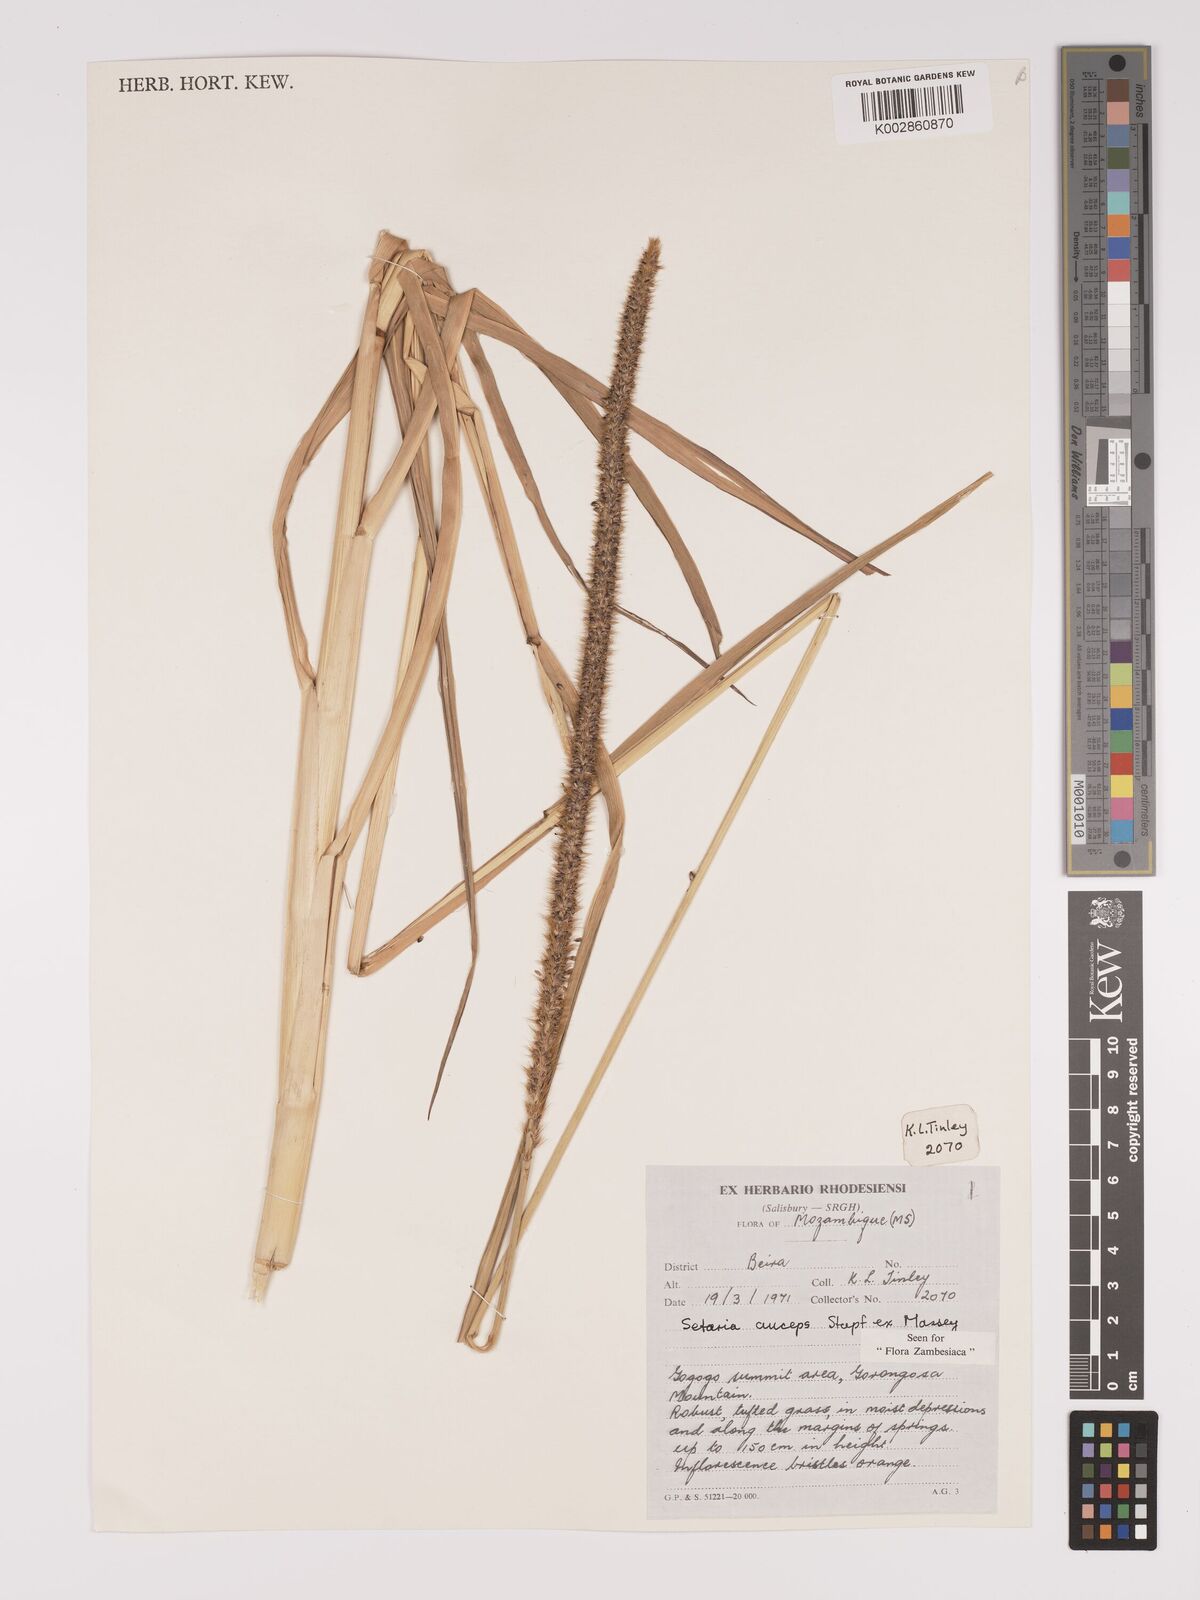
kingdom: Plantae
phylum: Tracheophyta
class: Liliopsida
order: Poales
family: Poaceae
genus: Setaria
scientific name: Setaria sphacelata
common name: African bristlegrass
